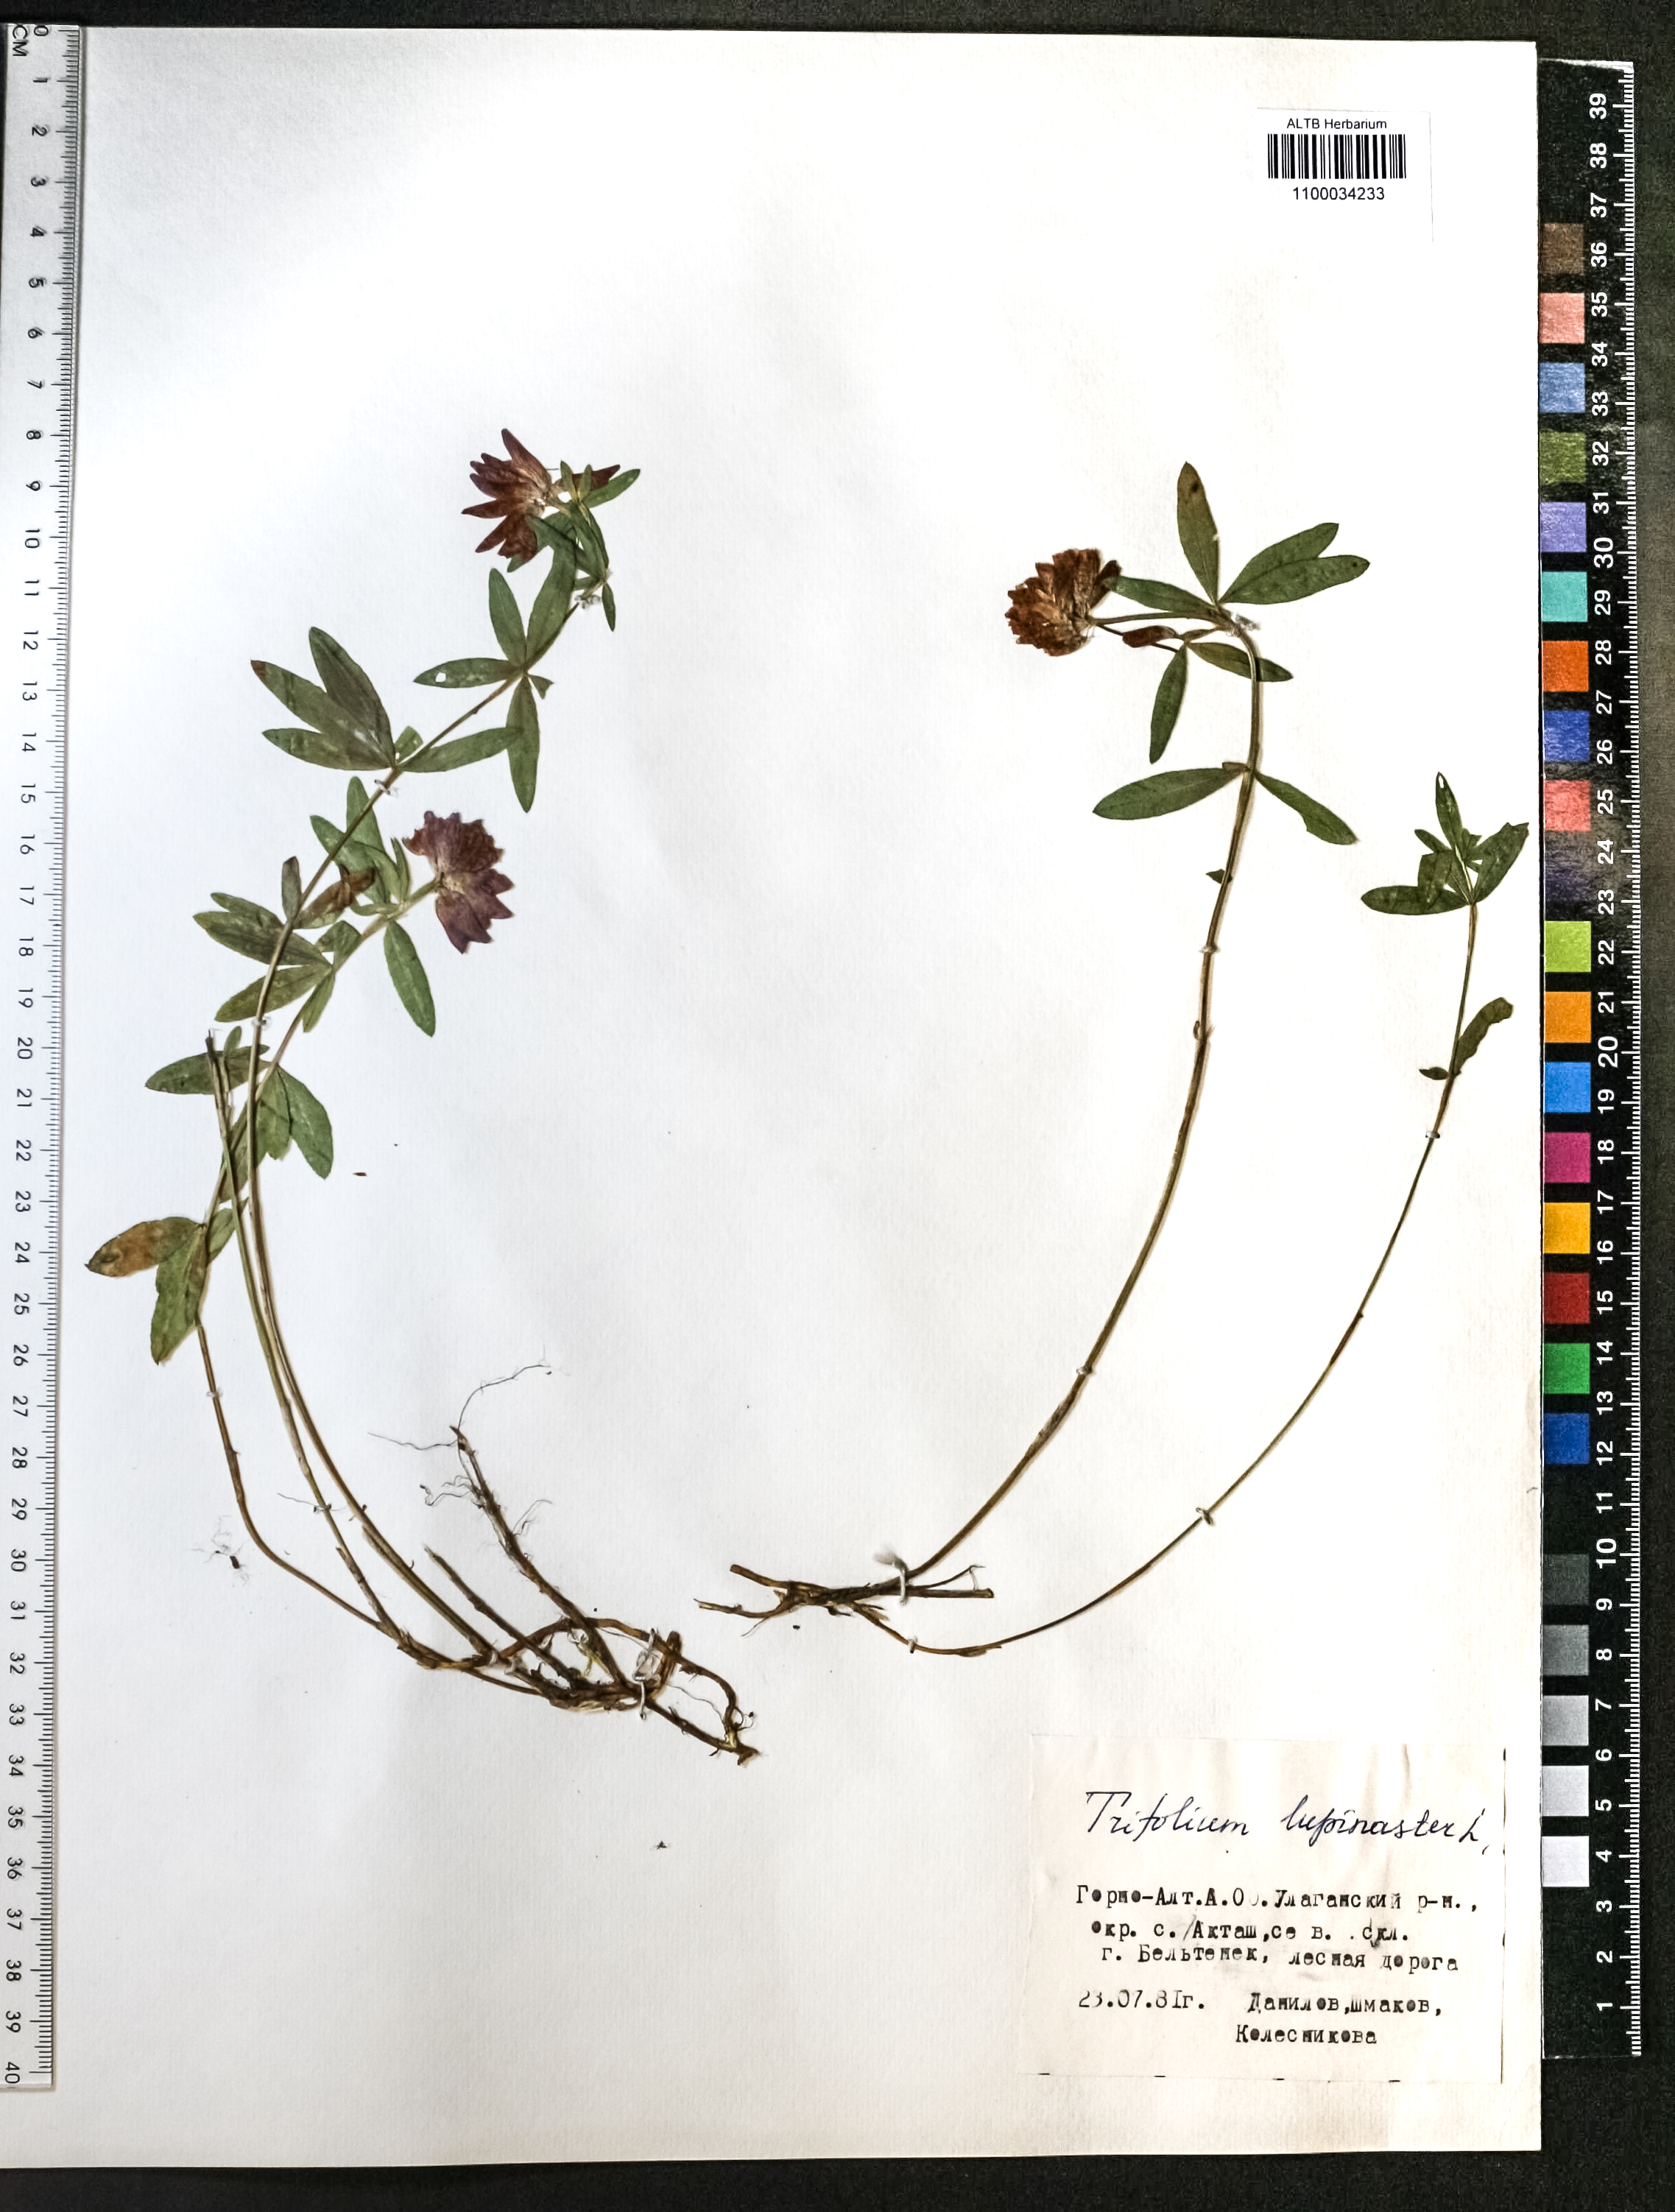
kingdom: Plantae
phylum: Tracheophyta
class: Magnoliopsida
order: Fabales
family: Fabaceae
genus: Trifolium
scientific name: Trifolium lupinaster
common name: Lupine clover
